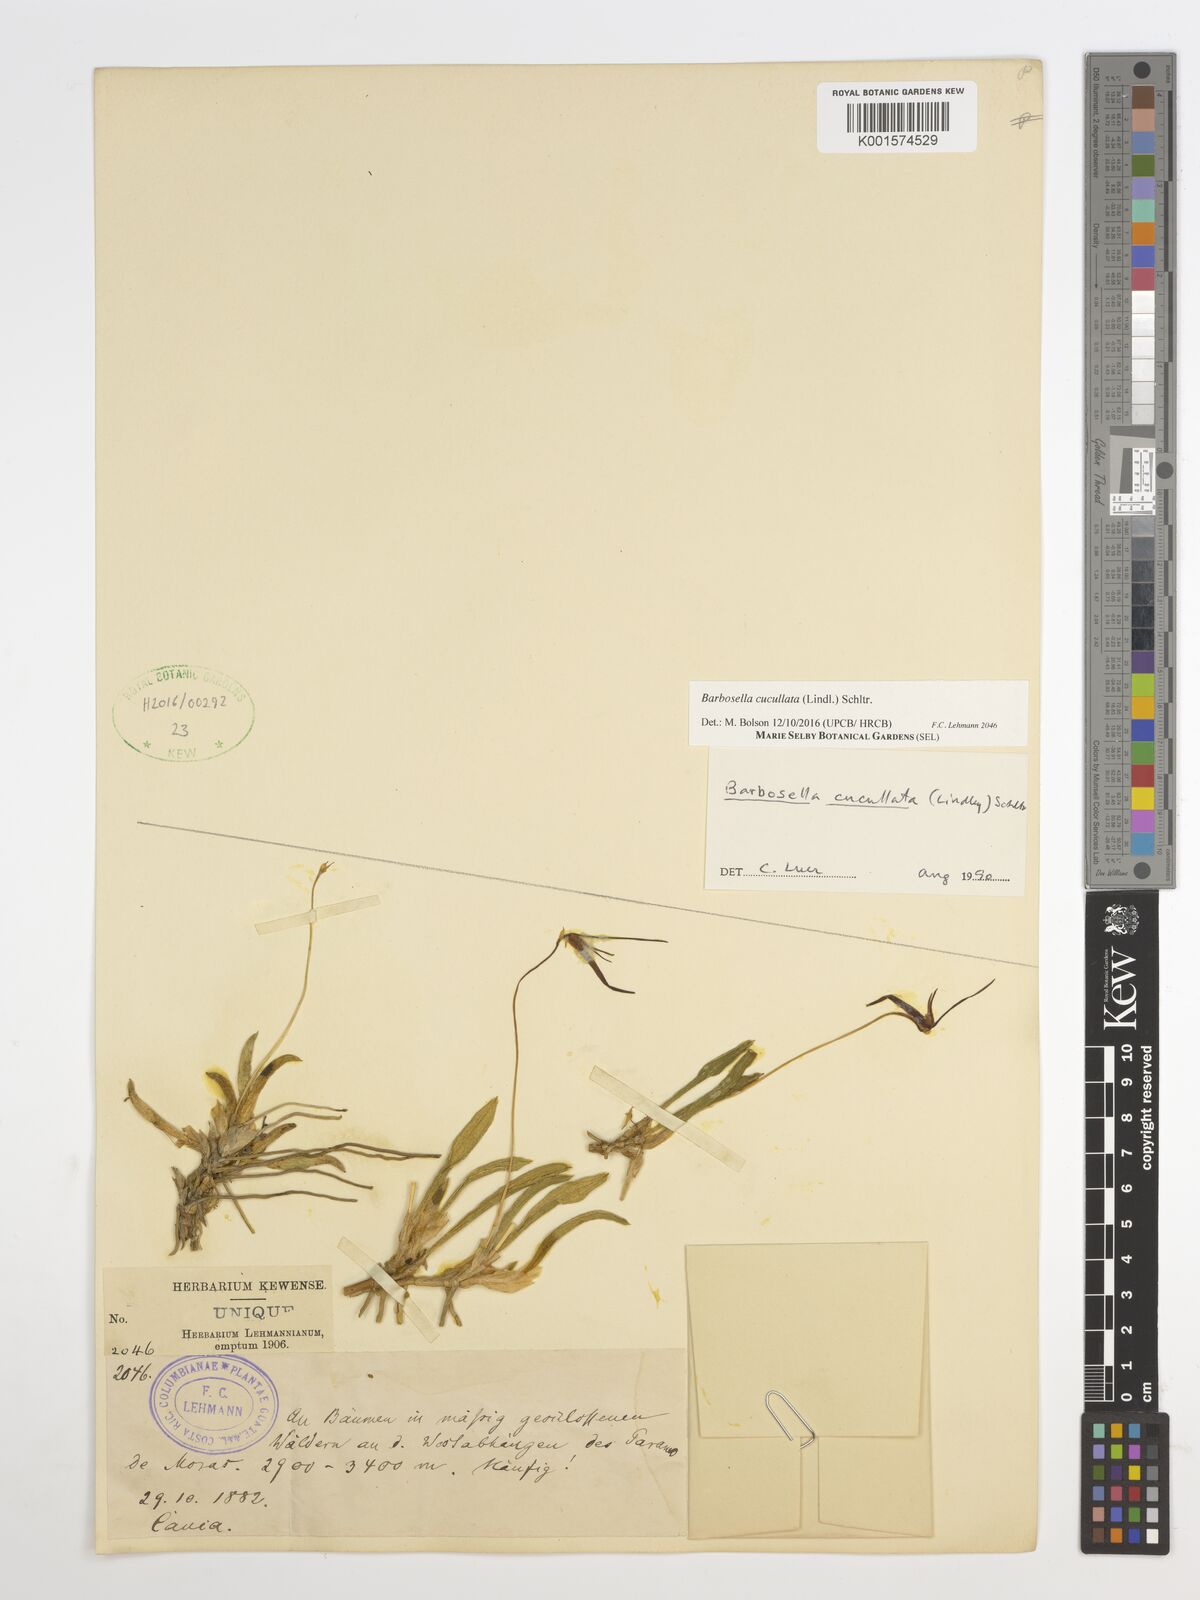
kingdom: Plantae
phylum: Tracheophyta
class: Liliopsida
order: Asparagales
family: Orchidaceae
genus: Barbosella
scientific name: Barbosella cucullata
